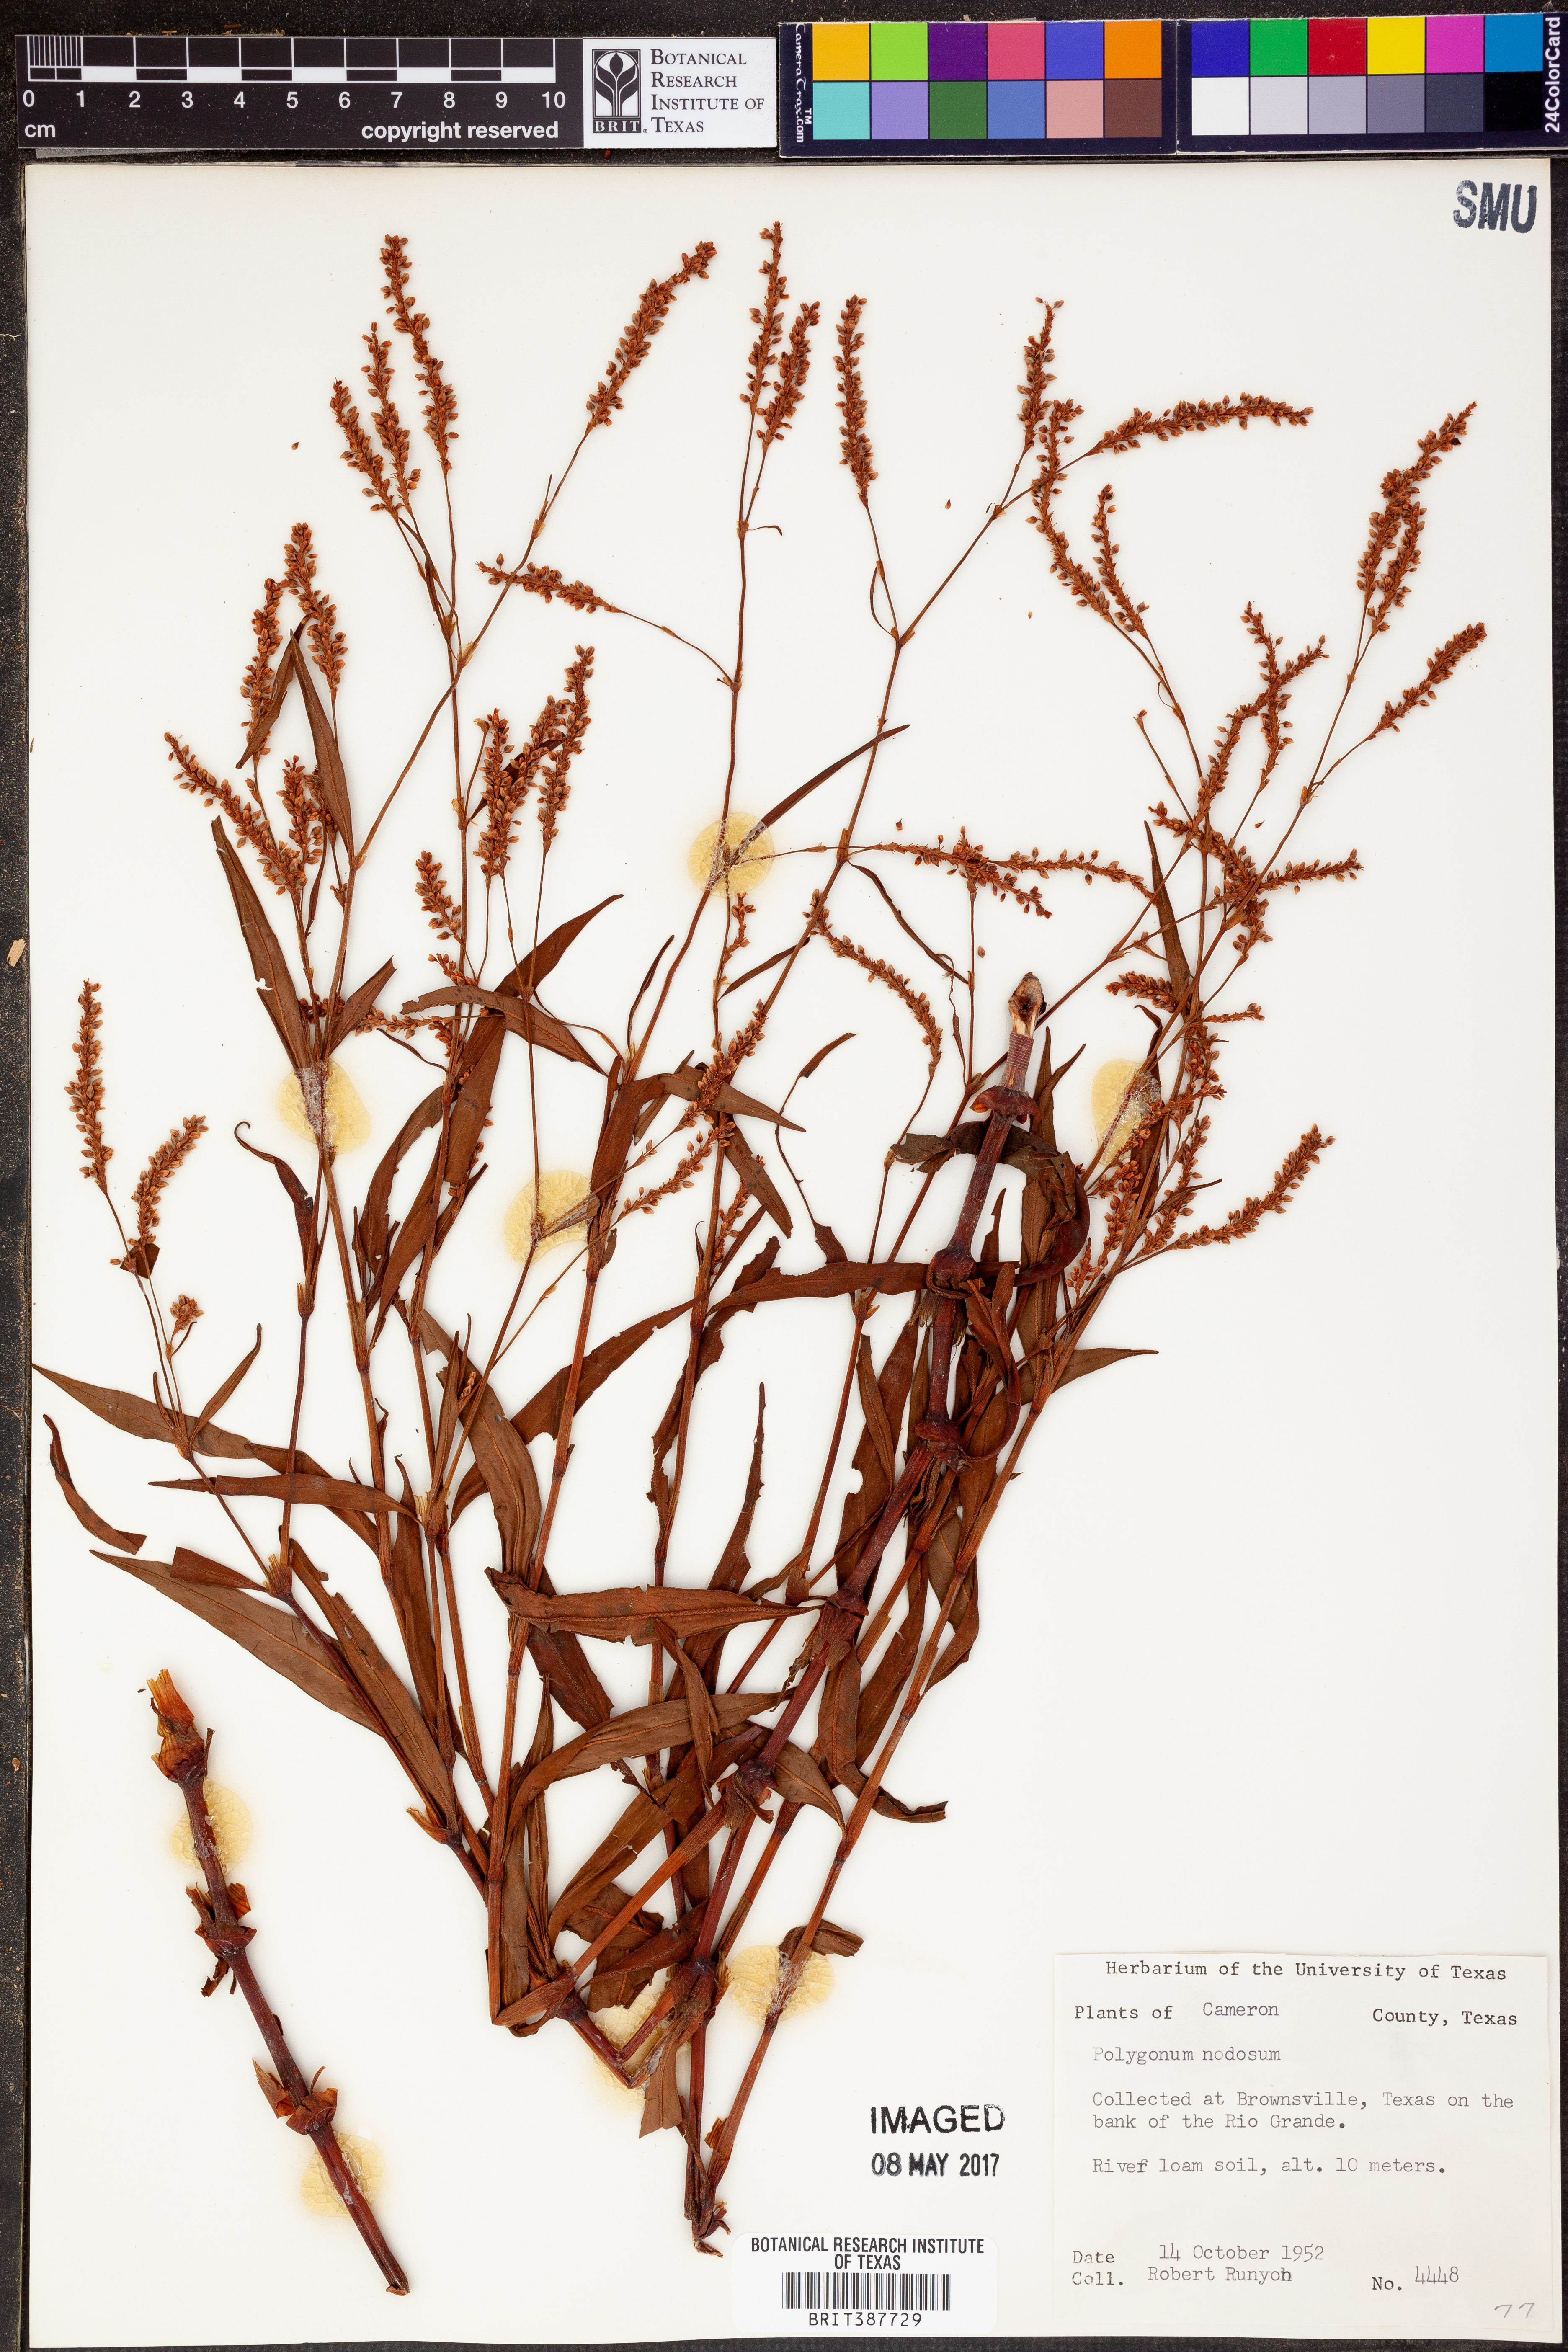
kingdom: Plantae
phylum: Tracheophyta
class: Magnoliopsida
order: Caryophyllales
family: Polygonaceae
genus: Persicaria
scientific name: Persicaria lapathifolia
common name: Curlytop knotweed
